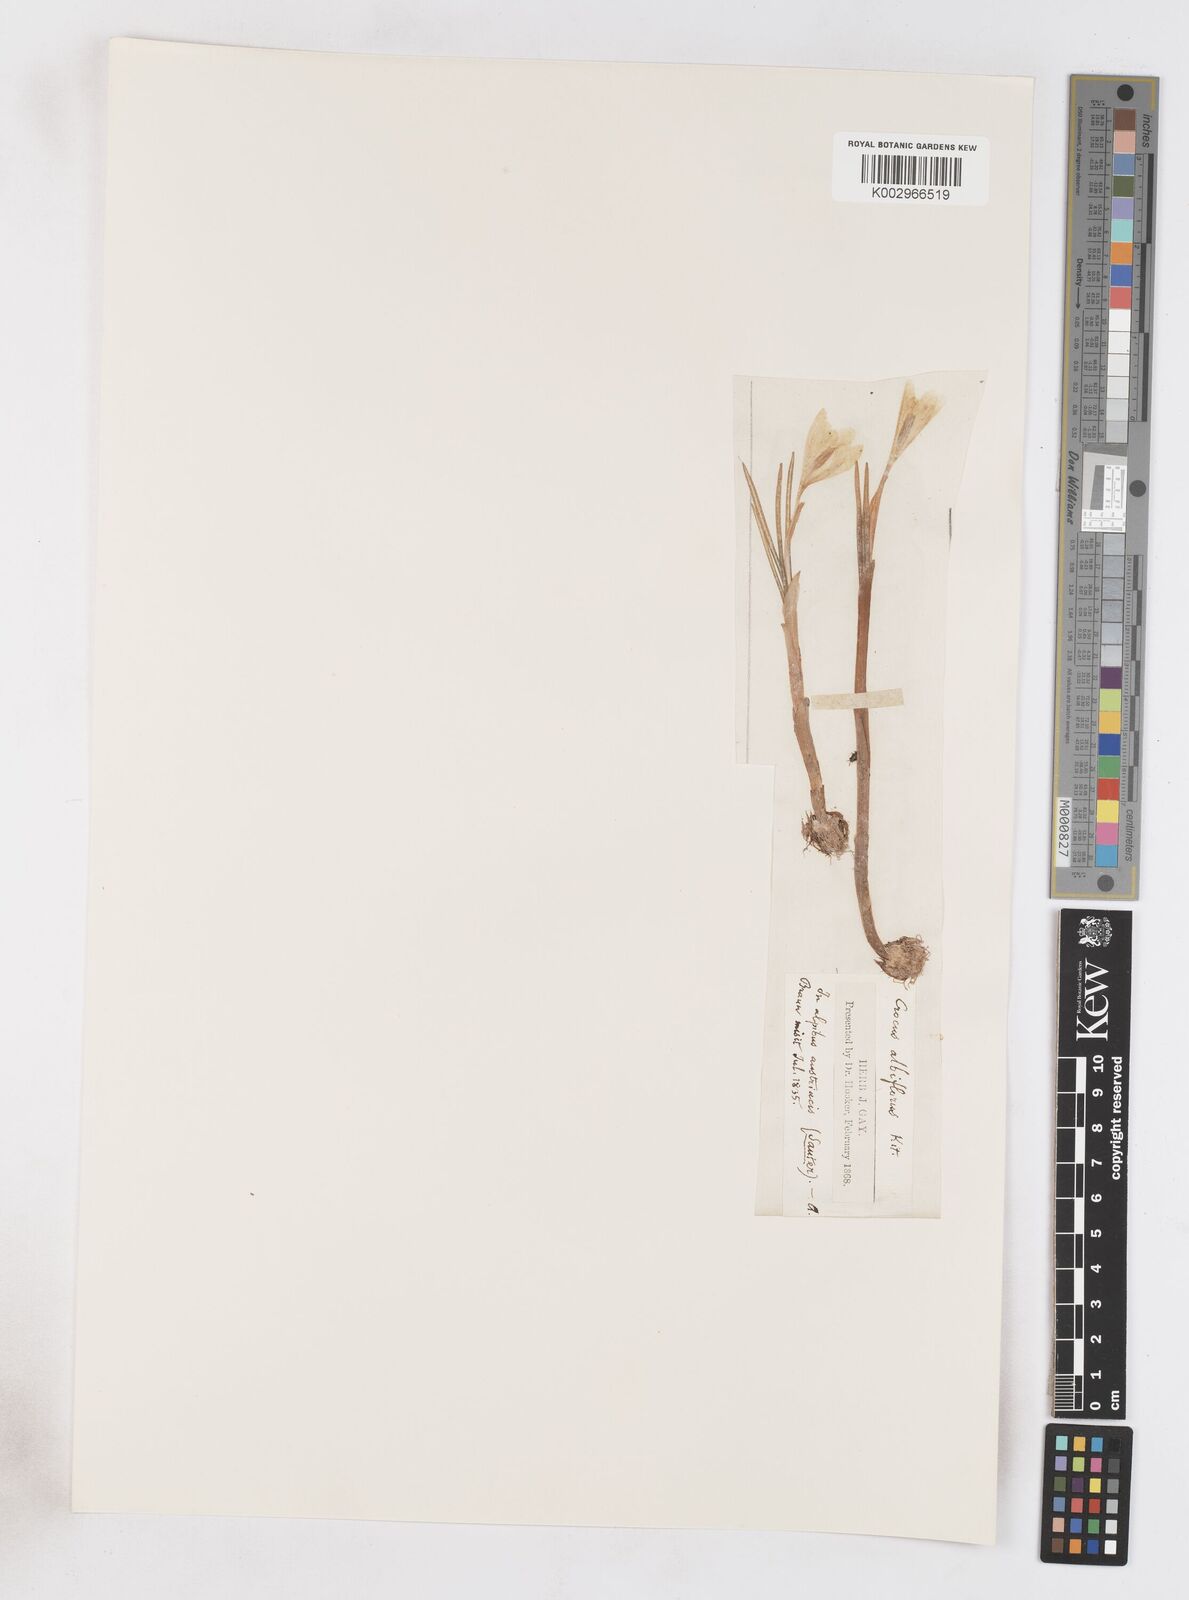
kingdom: Plantae
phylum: Tracheophyta
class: Liliopsida
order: Asparagales
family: Iridaceae
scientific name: Iridaceae
